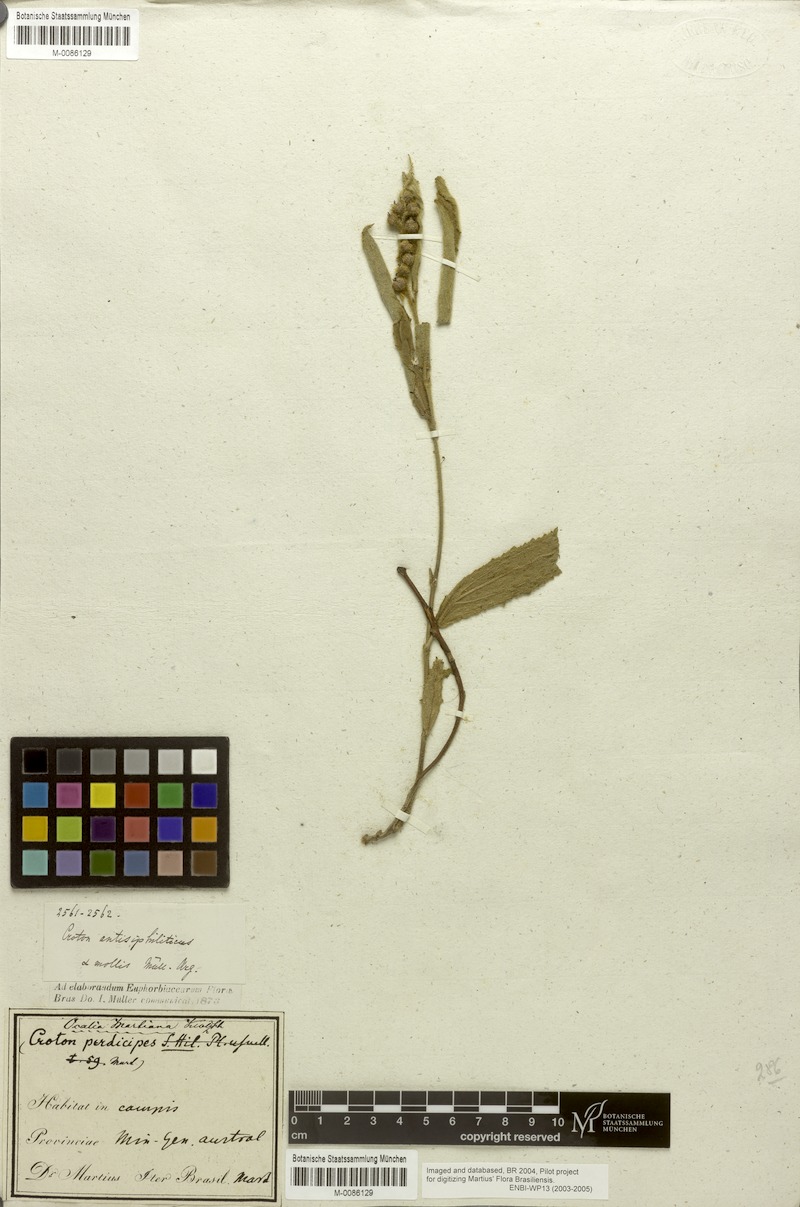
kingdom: Plantae
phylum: Tracheophyta
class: Magnoliopsida
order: Malpighiales
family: Euphorbiaceae
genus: Croton
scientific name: Croton antisyphiliticus
